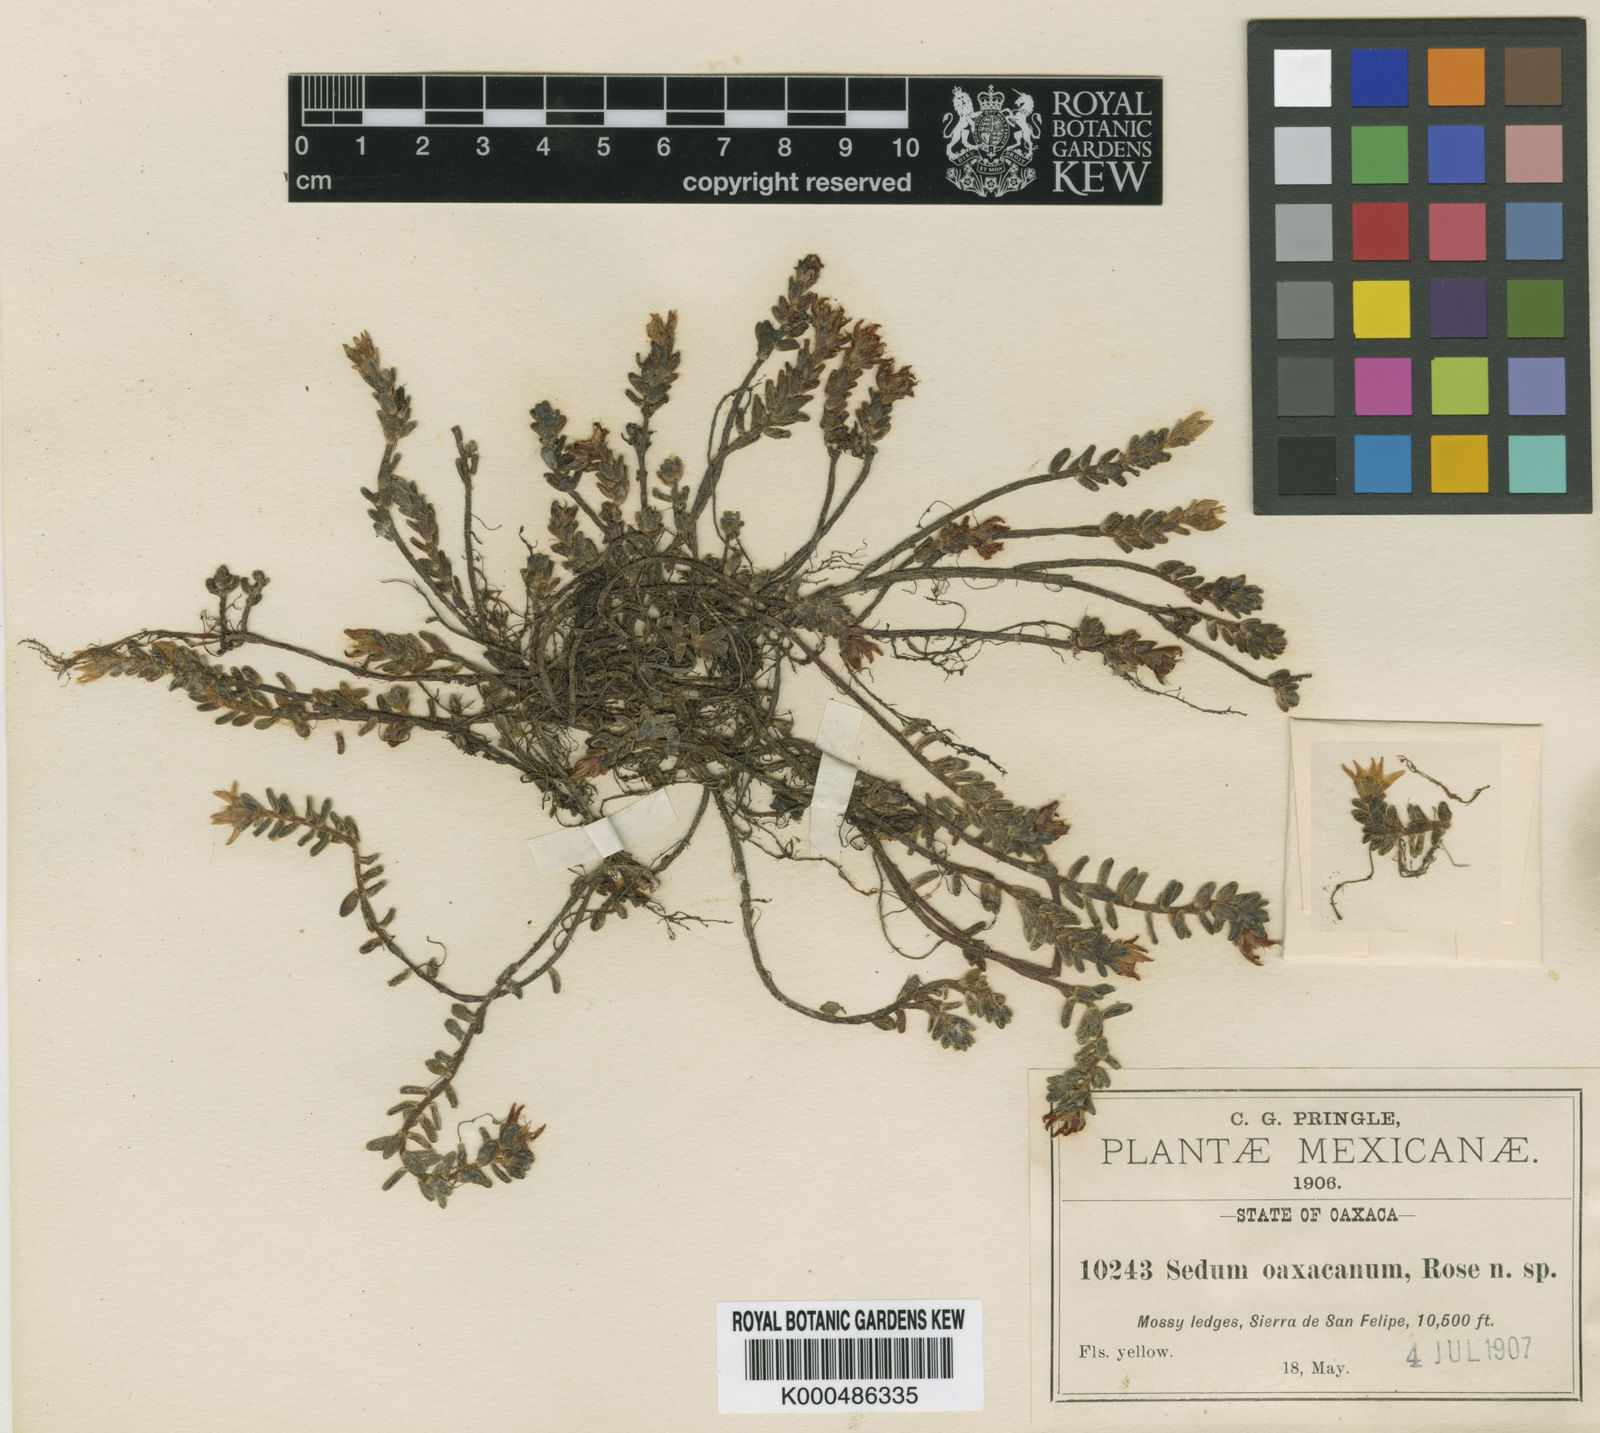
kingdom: Plantae
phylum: Tracheophyta
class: Magnoliopsida
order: Saxifragales
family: Crassulaceae
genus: Sedum
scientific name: Sedum oaxacanum
